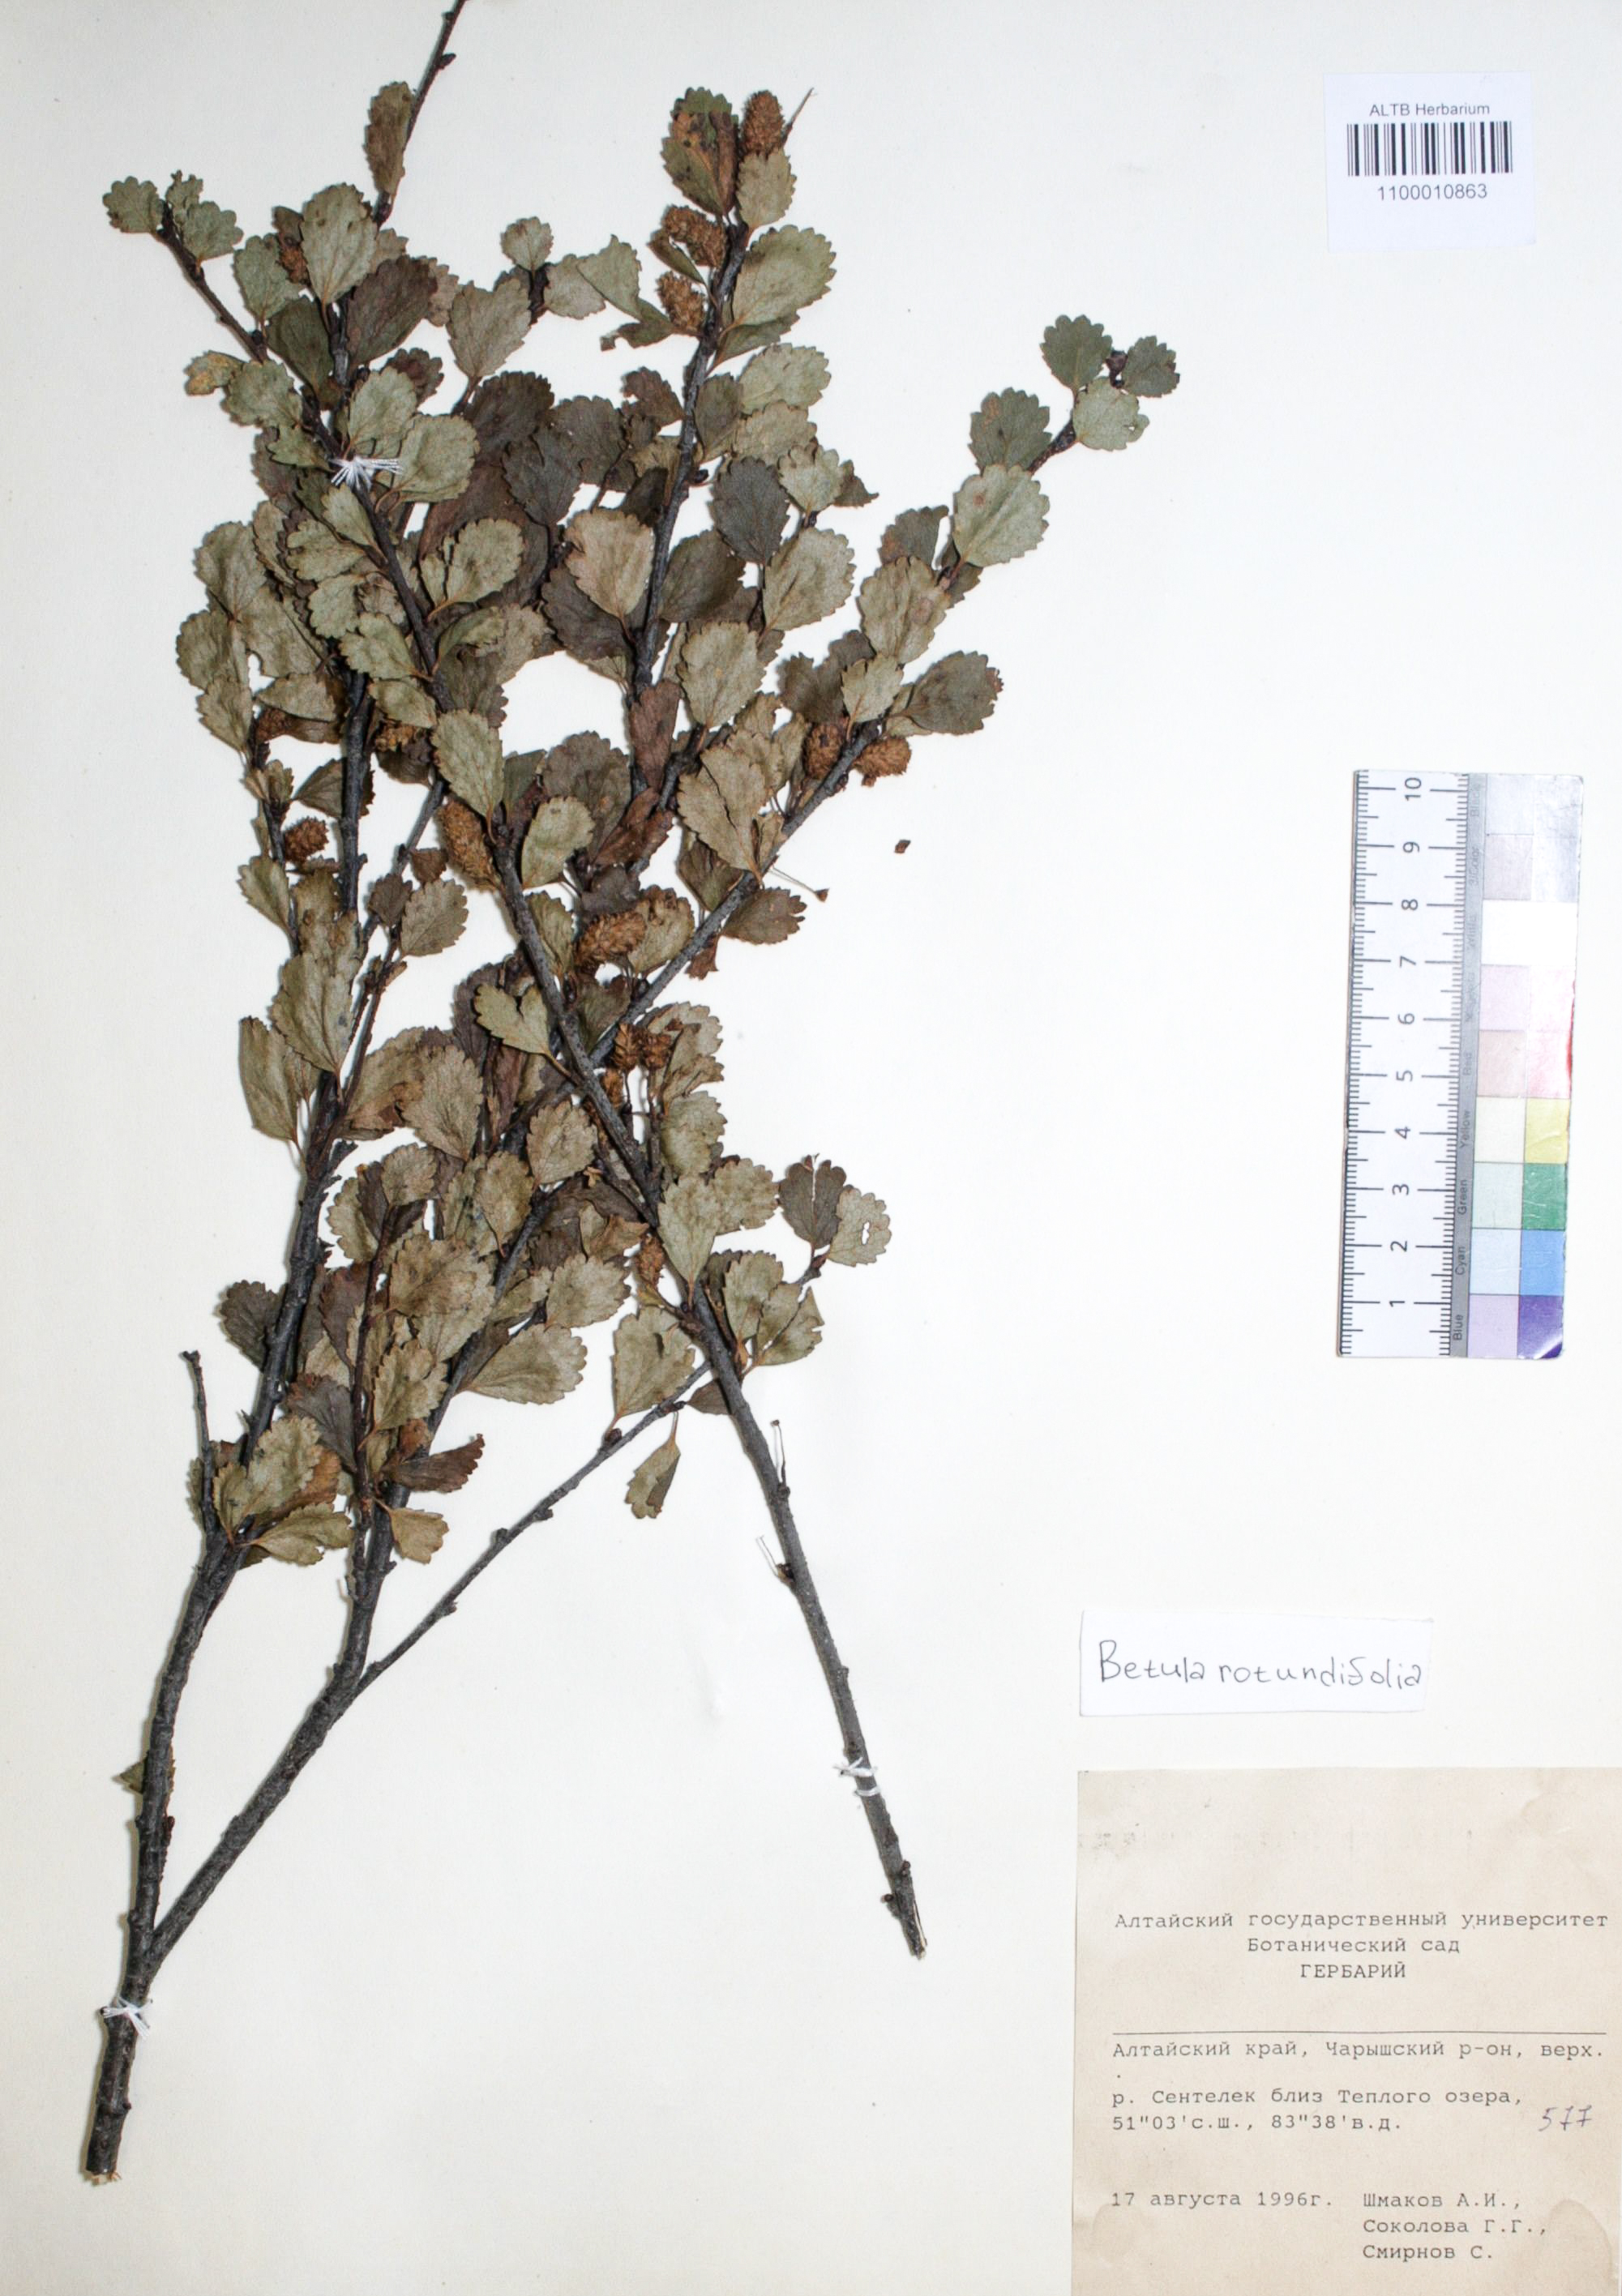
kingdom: Plantae
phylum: Tracheophyta
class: Magnoliopsida
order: Fagales
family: Betulaceae
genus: Betula
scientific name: Betula glandulosa
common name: Dwarf birch
